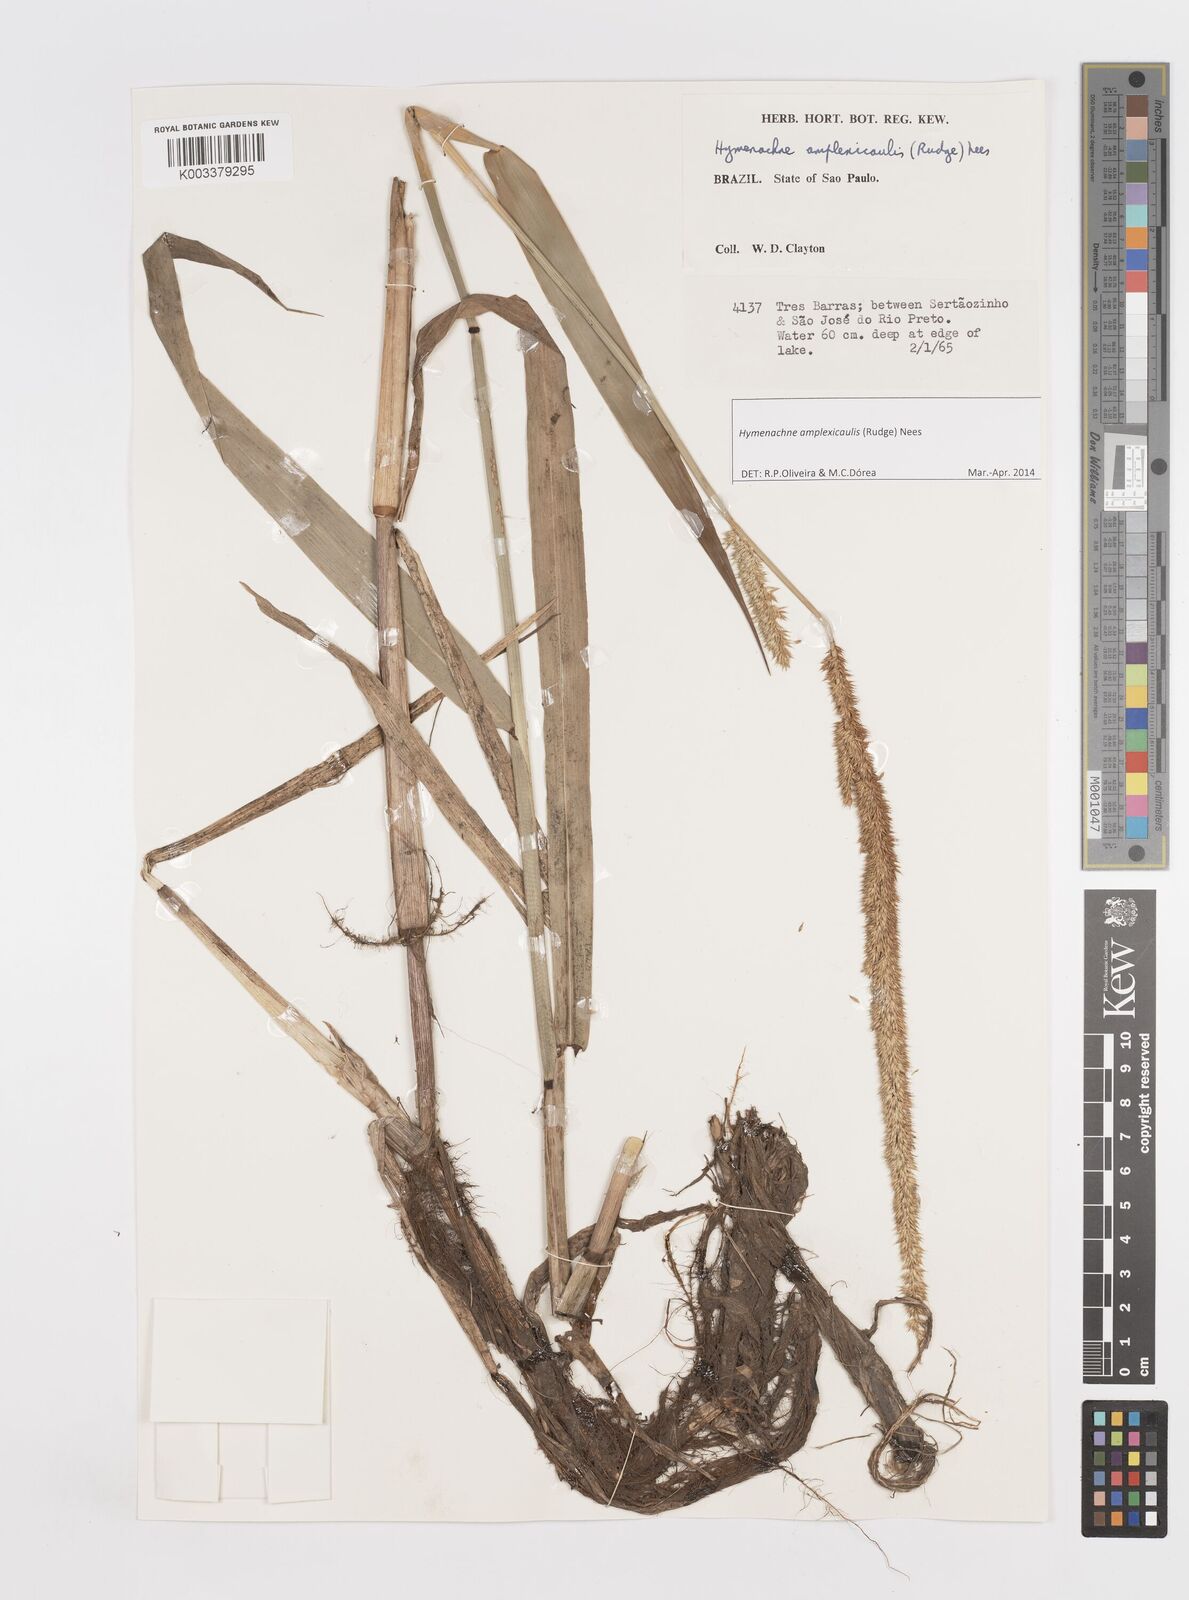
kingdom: Plantae
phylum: Tracheophyta
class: Liliopsida
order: Poales
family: Poaceae
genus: Hymenachne
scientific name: Hymenachne amplexicaulis
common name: Olive hymenachne
